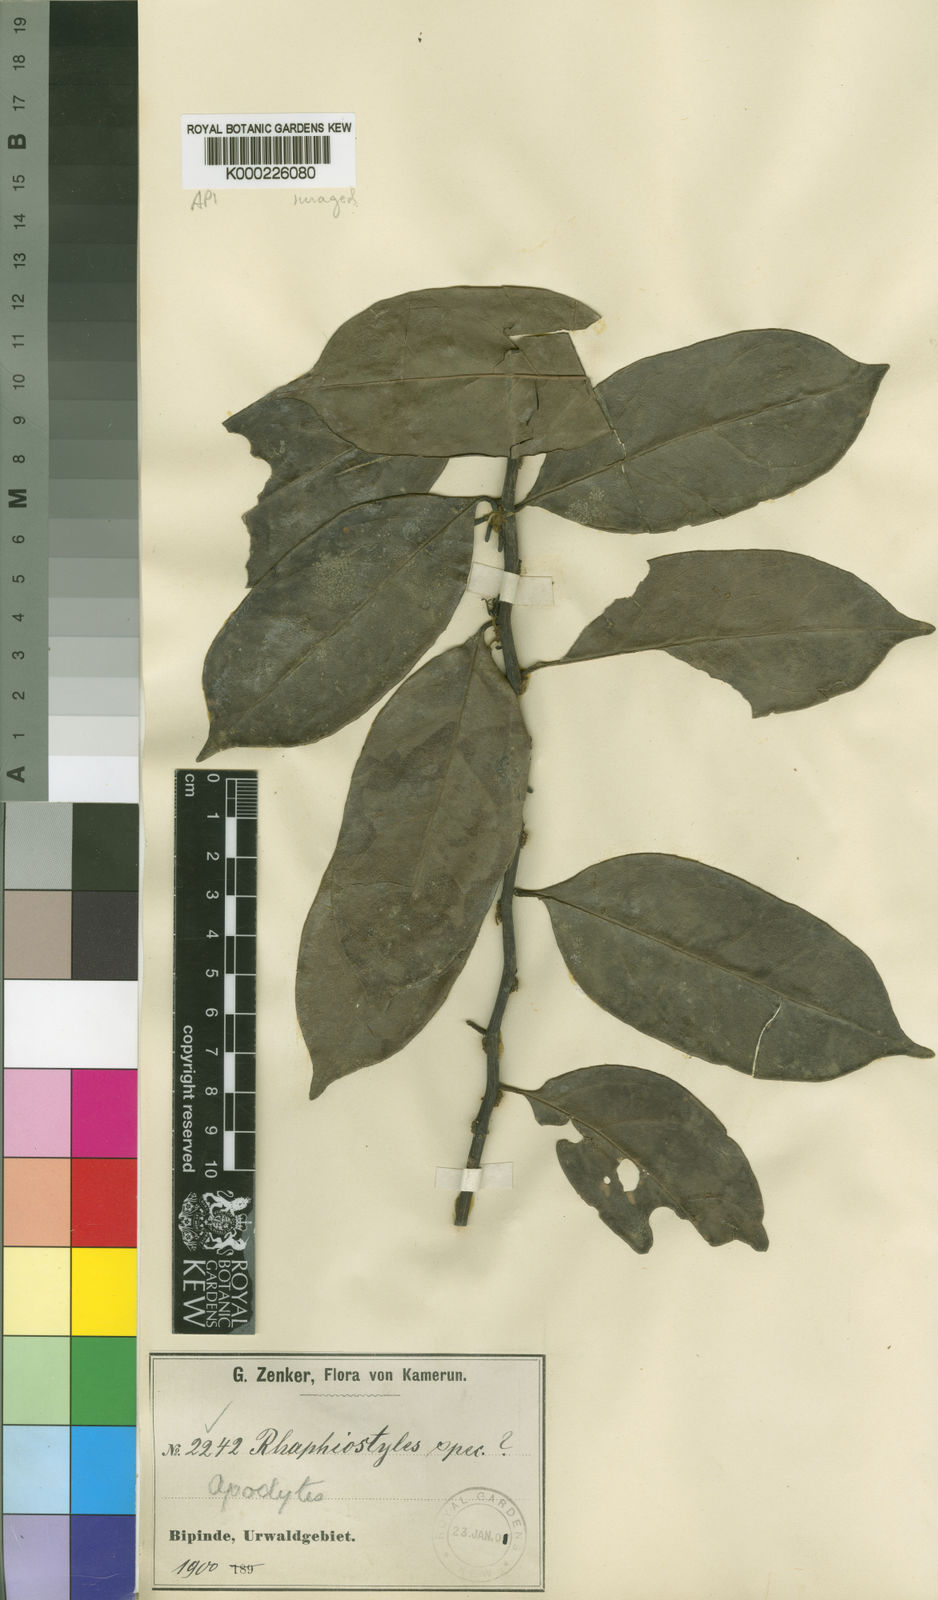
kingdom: Plantae
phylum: Tracheophyta
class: Magnoliopsida
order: Metteniusales
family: Metteniusaceae
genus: Rhaphiostylis
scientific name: Rhaphiostylis ferruginea
